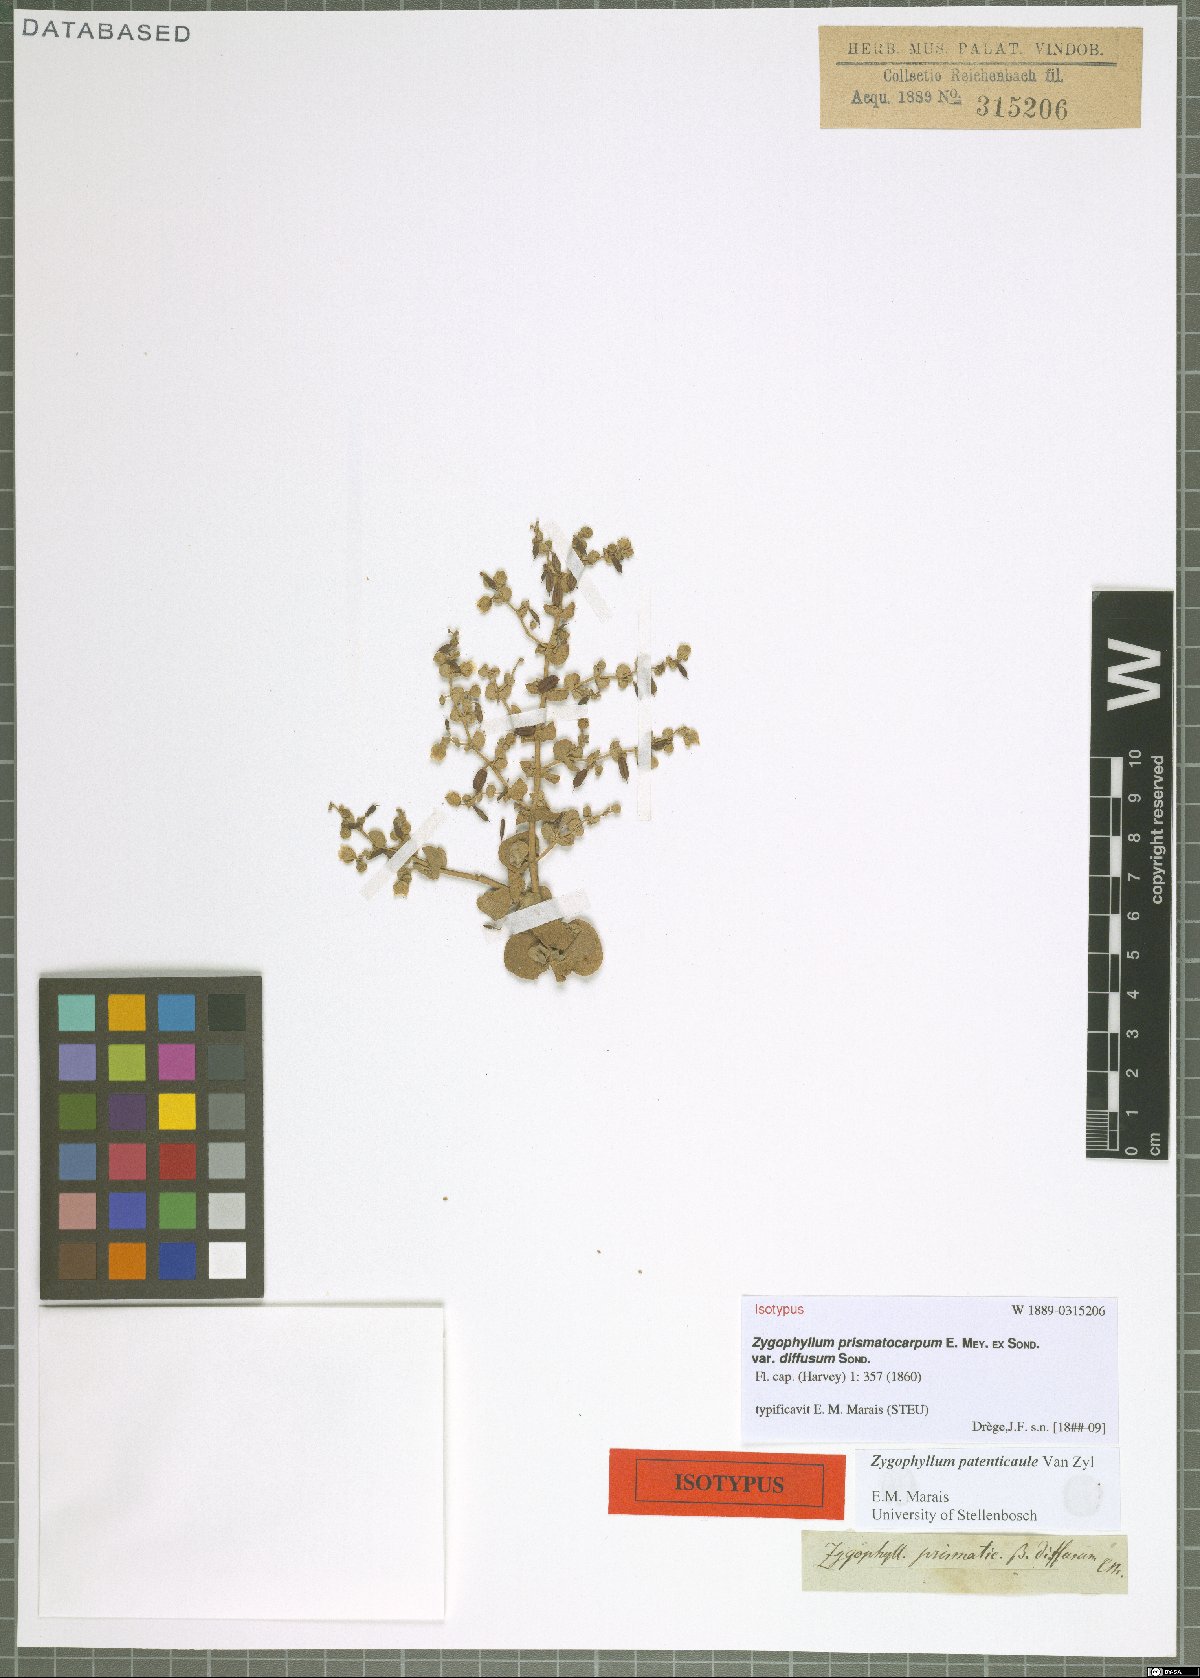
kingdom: Plantae
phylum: Tracheophyta
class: Magnoliopsida
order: Zygophyllales
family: Zygophyllaceae
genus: Tetraena
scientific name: Tetraena prismatocarpa
